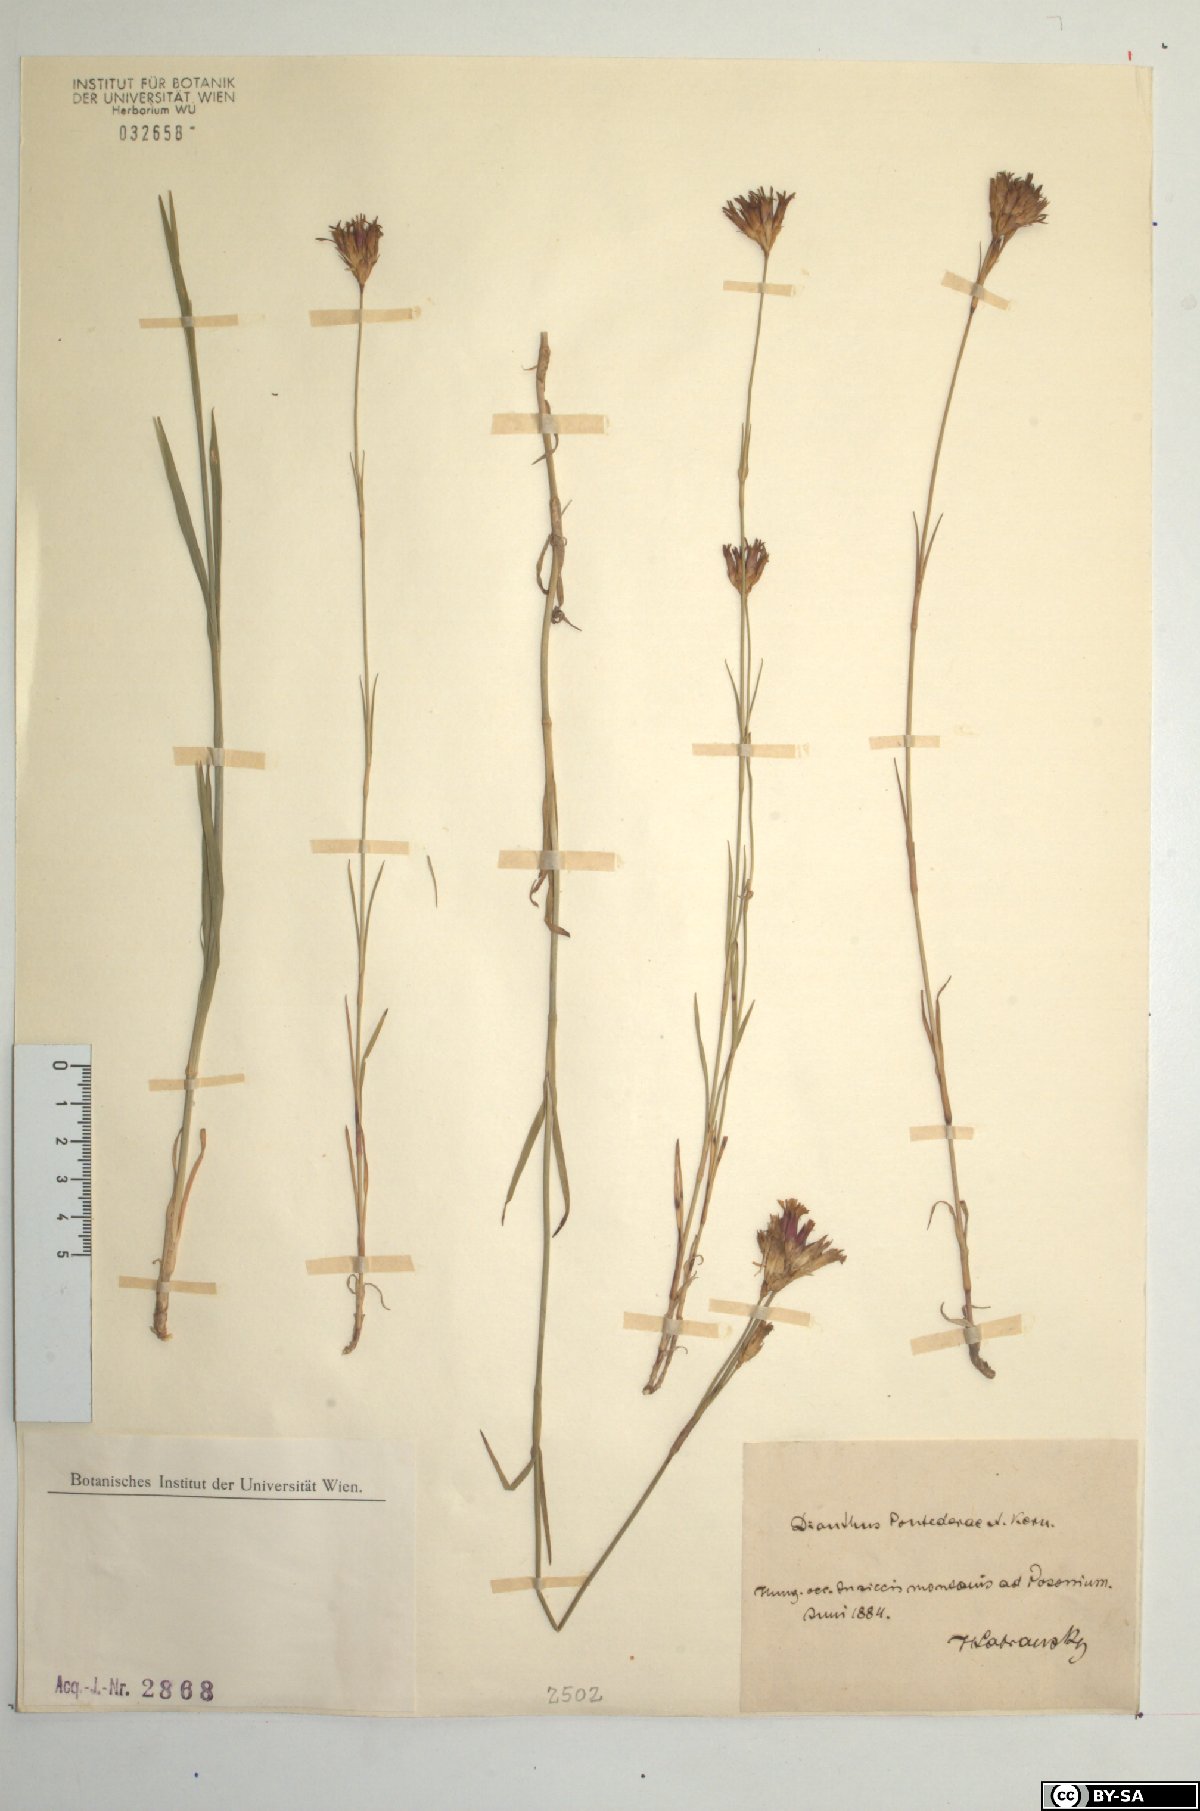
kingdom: Plantae
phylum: Tracheophyta
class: Magnoliopsida
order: Caryophyllales
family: Caryophyllaceae
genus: Dianthus
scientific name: Dianthus pontederae
